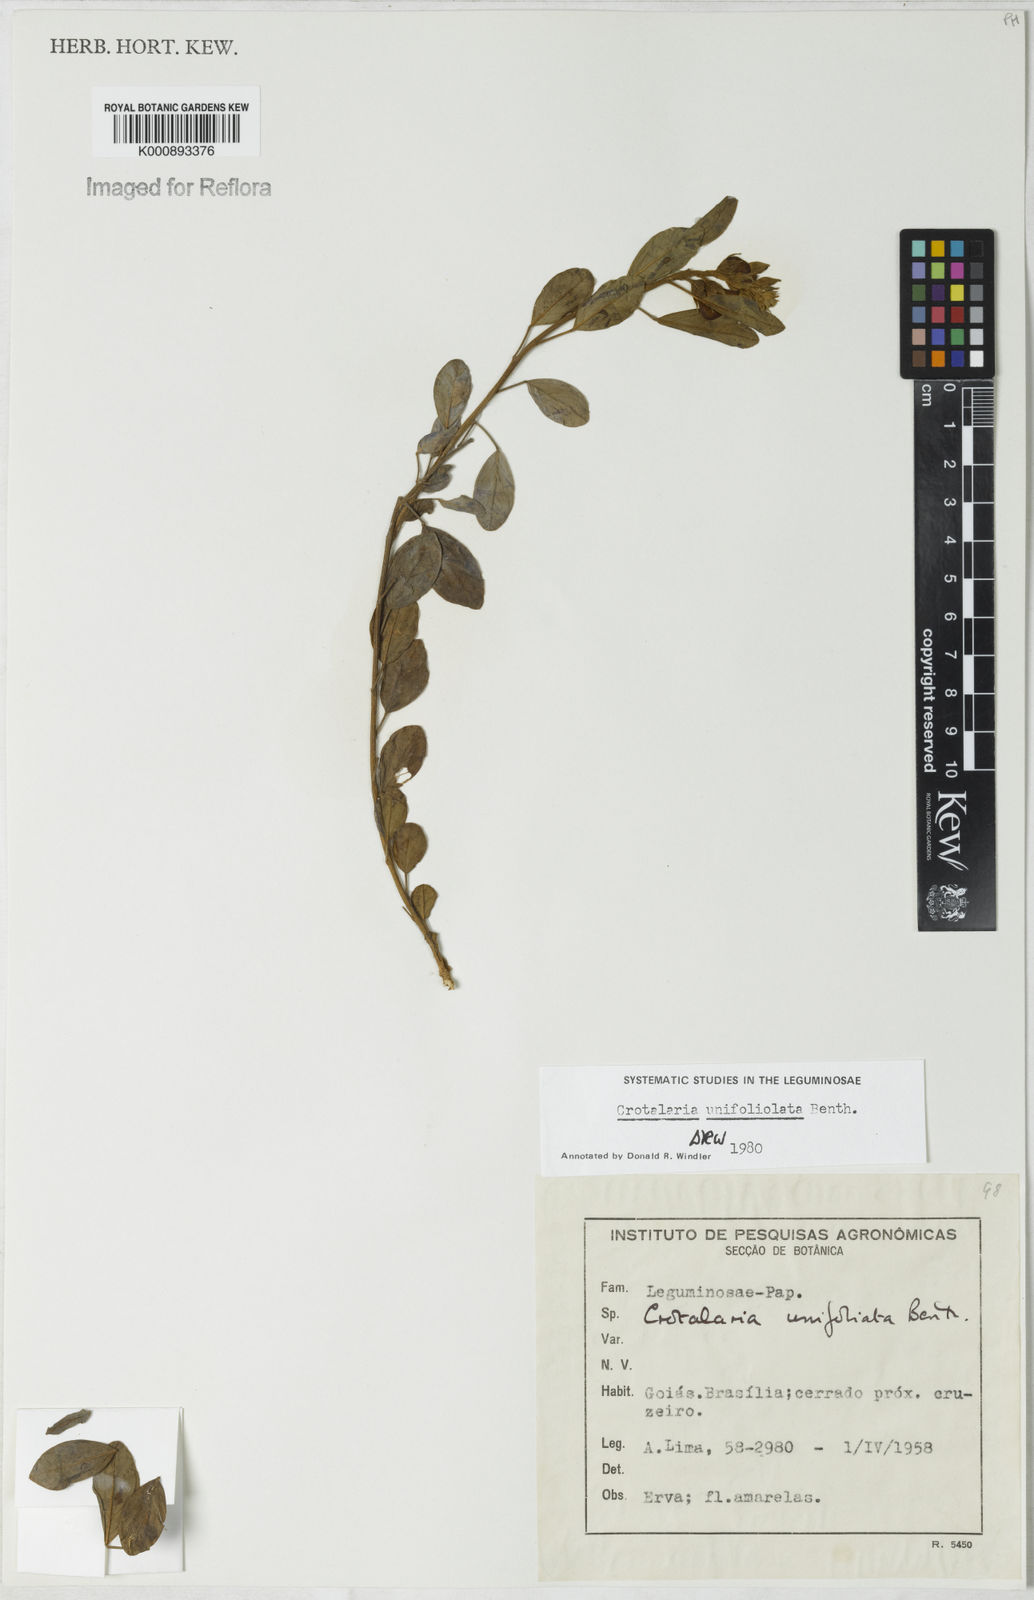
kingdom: Plantae
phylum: Tracheophyta
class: Magnoliopsida
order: Fabales
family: Fabaceae
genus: Crotalaria
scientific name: Crotalaria unifoliolata
